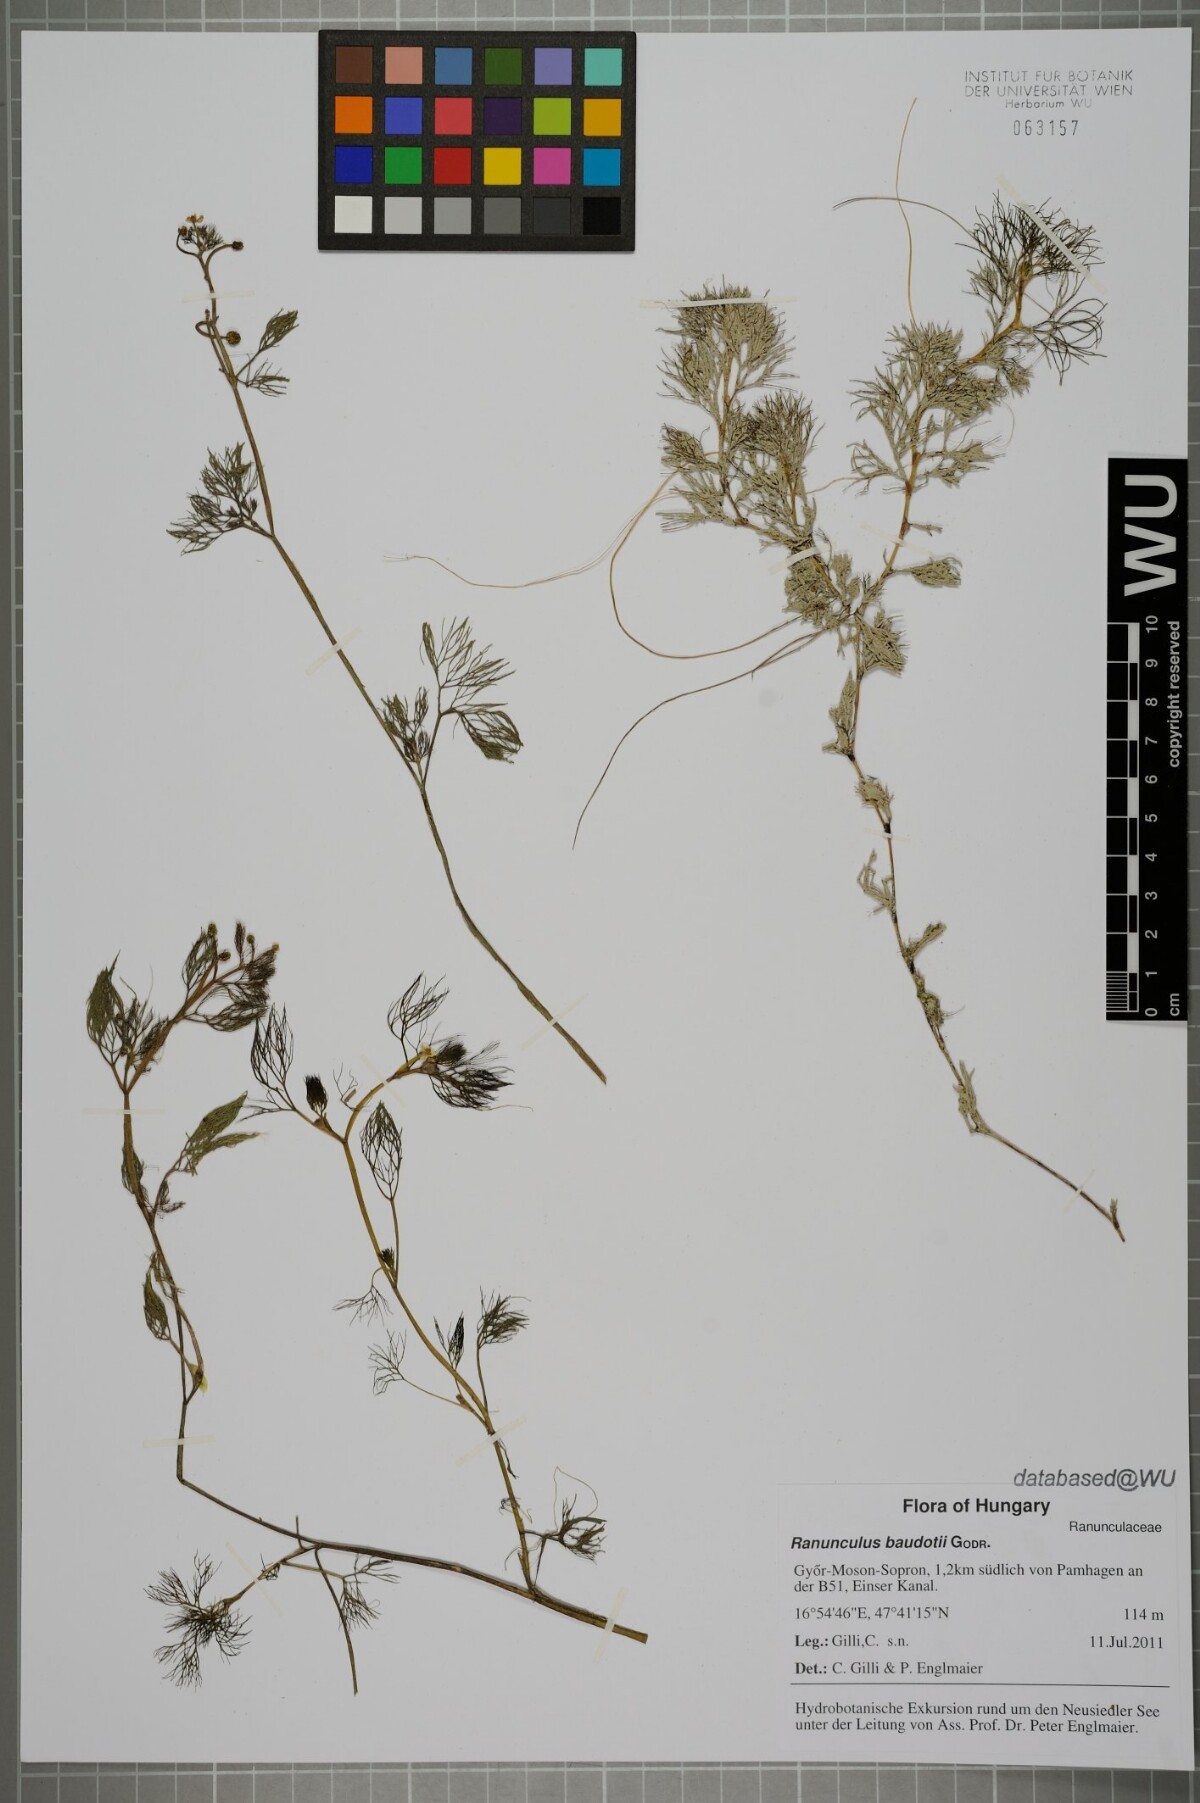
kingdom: Plantae
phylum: Tracheophyta
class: Magnoliopsida
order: Ranunculales
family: Ranunculaceae
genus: Ranunculus
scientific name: Ranunculus peltatus
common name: Pond water-crowfoot
